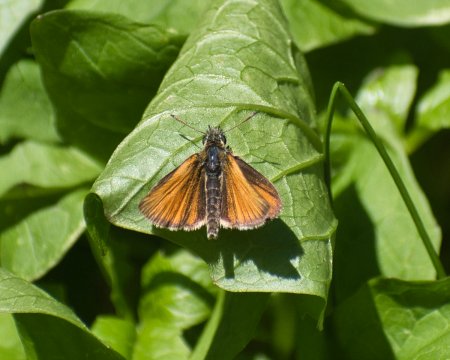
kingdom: Animalia
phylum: Arthropoda
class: Insecta
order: Lepidoptera
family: Hesperiidae
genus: Thymelicus
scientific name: Thymelicus lineola
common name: European Skipper
